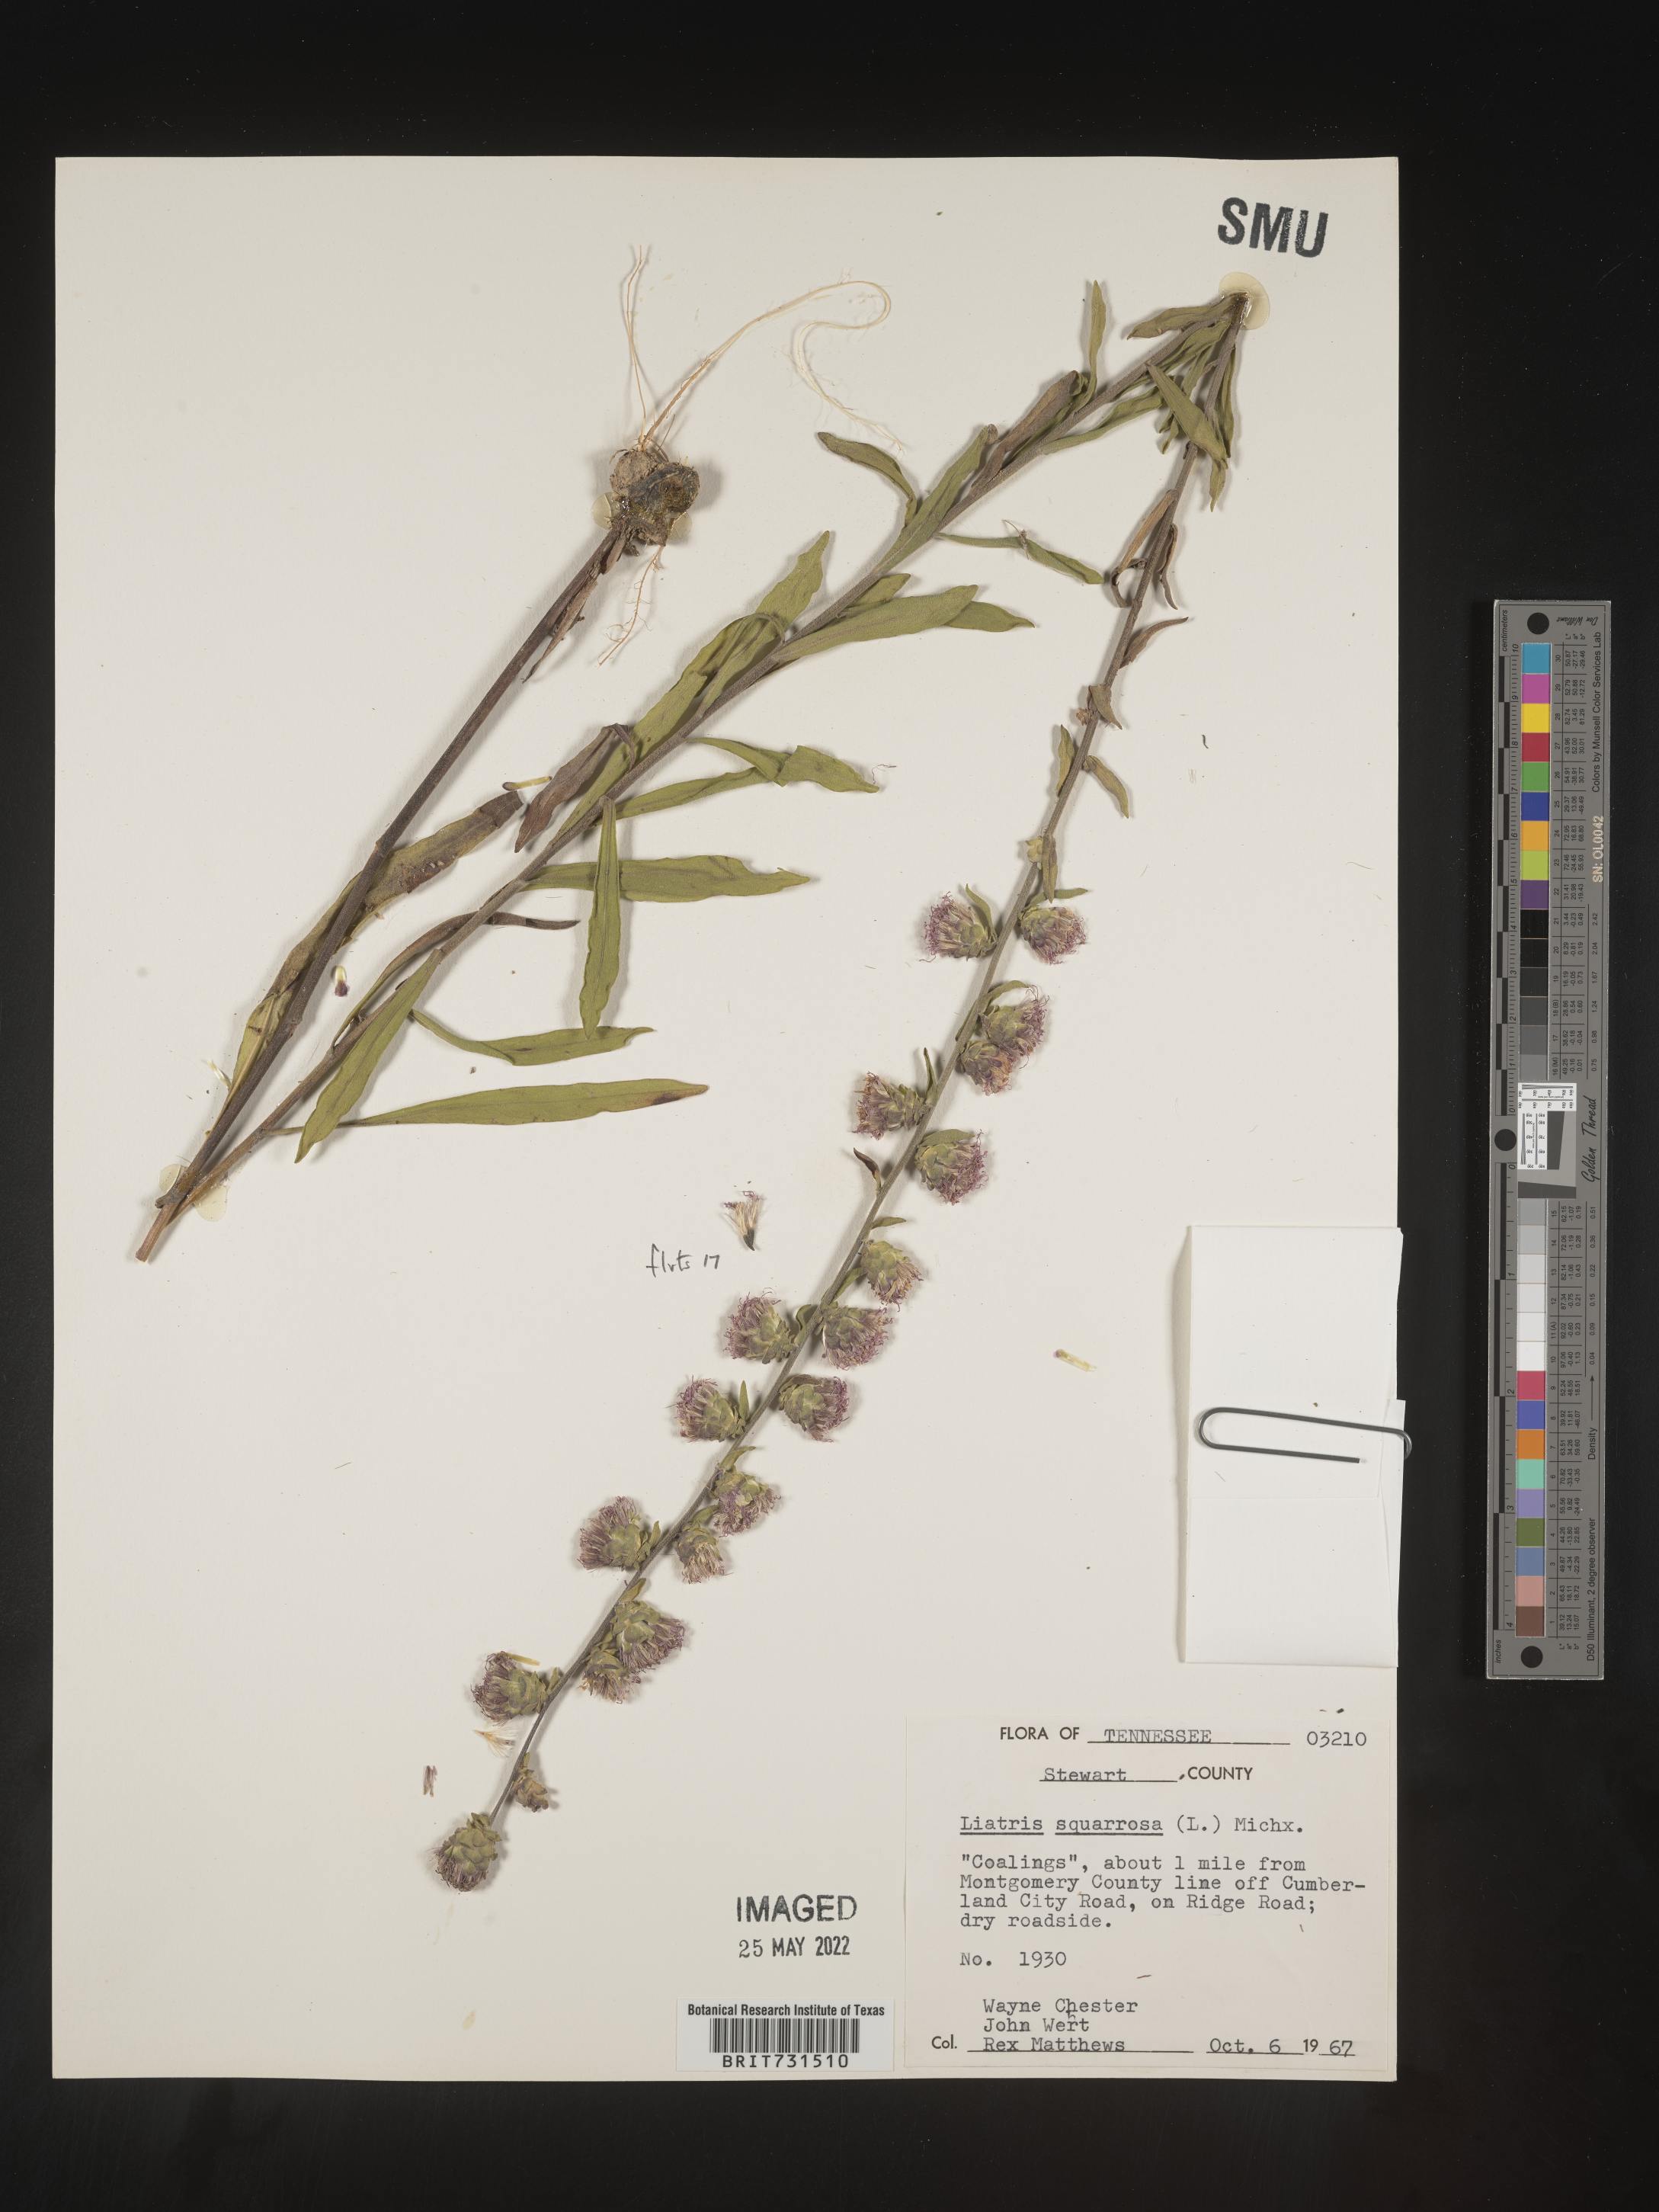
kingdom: Plantae
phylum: Tracheophyta
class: Magnoliopsida
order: Asterales
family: Asteraceae
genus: Liatris
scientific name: Liatris squarrulosa
